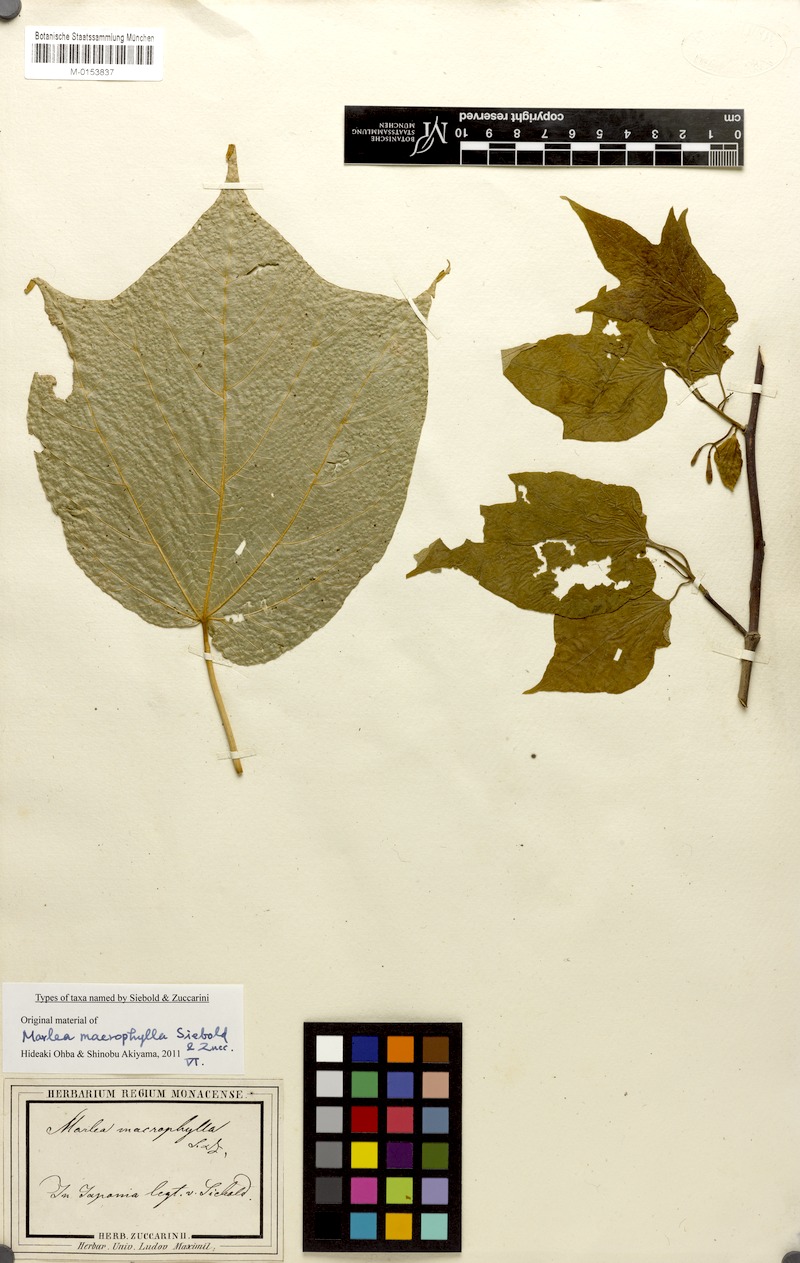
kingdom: Plantae
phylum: Tracheophyta
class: Magnoliopsida
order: Cornales
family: Cornaceae
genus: Alangium
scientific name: Alangium platanifolium
